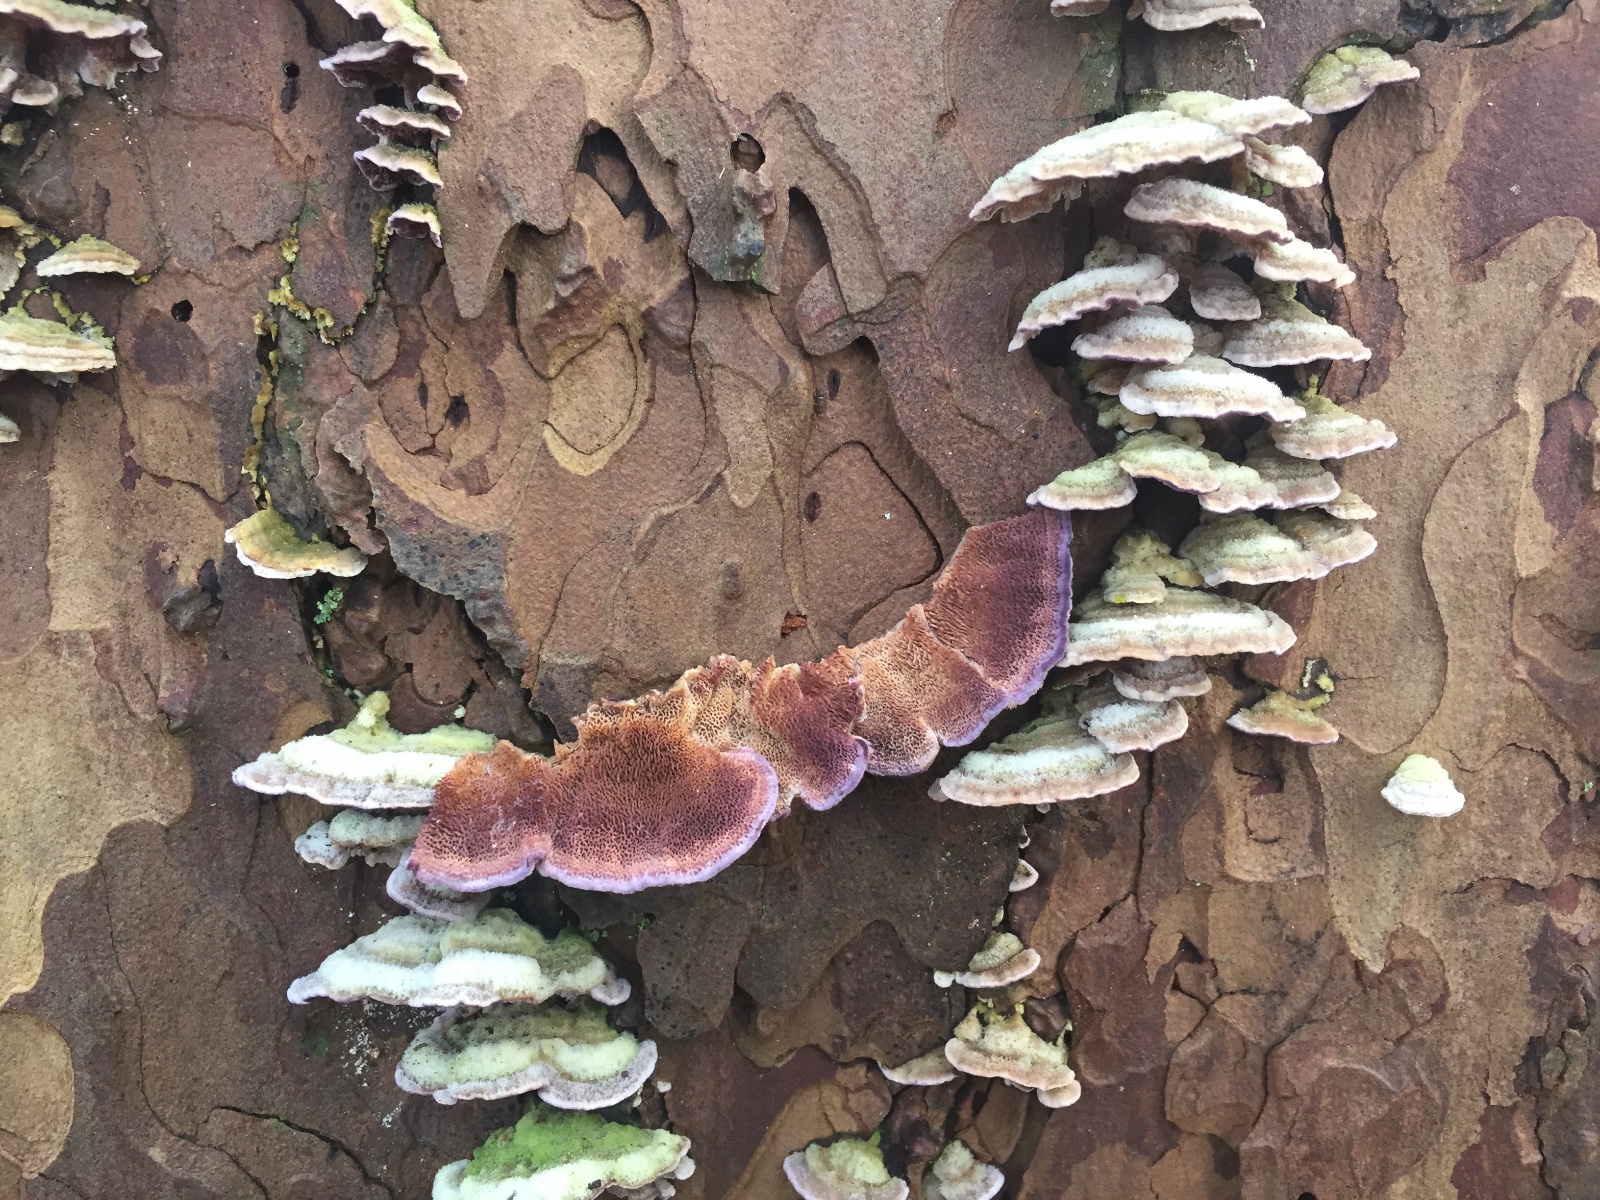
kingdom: Fungi
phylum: Basidiomycota
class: Agaricomycetes
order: Hymenochaetales
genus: Trichaptum
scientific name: Trichaptum abietinum
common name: almindelig violporesvamp
